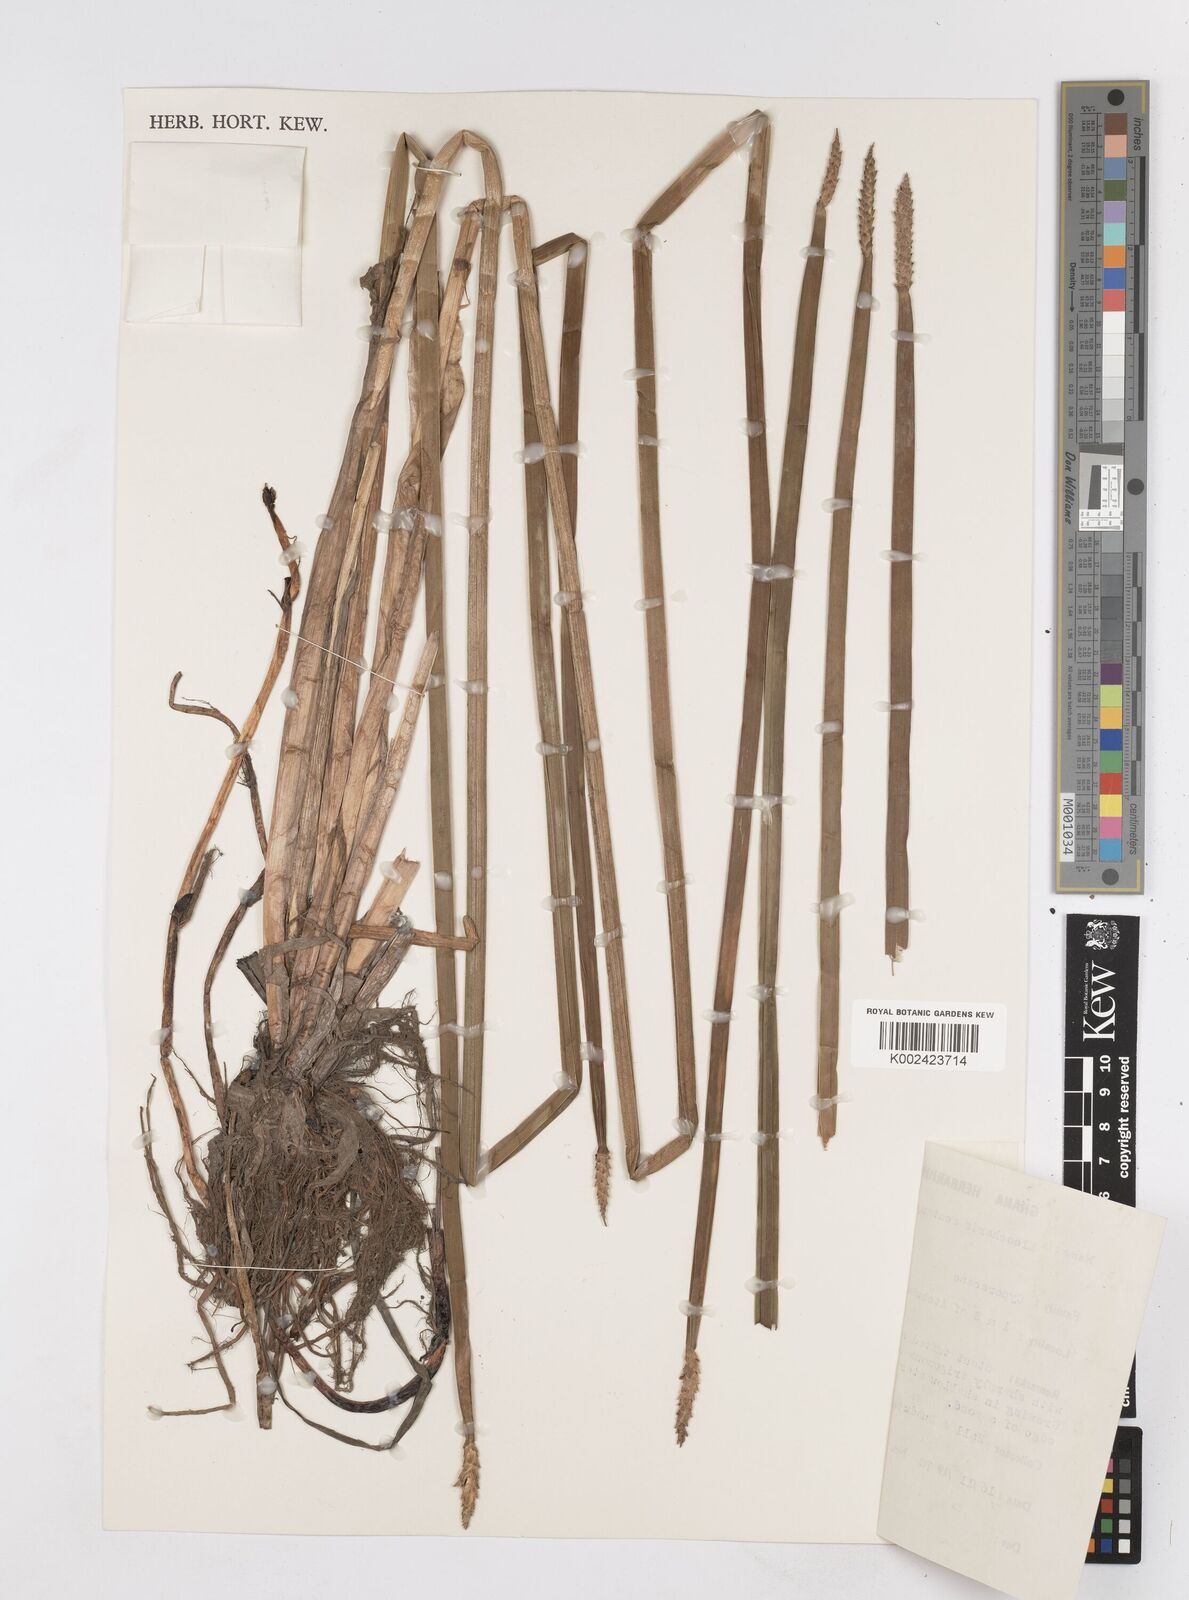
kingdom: Plantae
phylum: Tracheophyta
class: Liliopsida
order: Poales
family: Cyperaceae
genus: Eleocharis
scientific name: Eleocharis acutangula
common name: Acute spikerush
